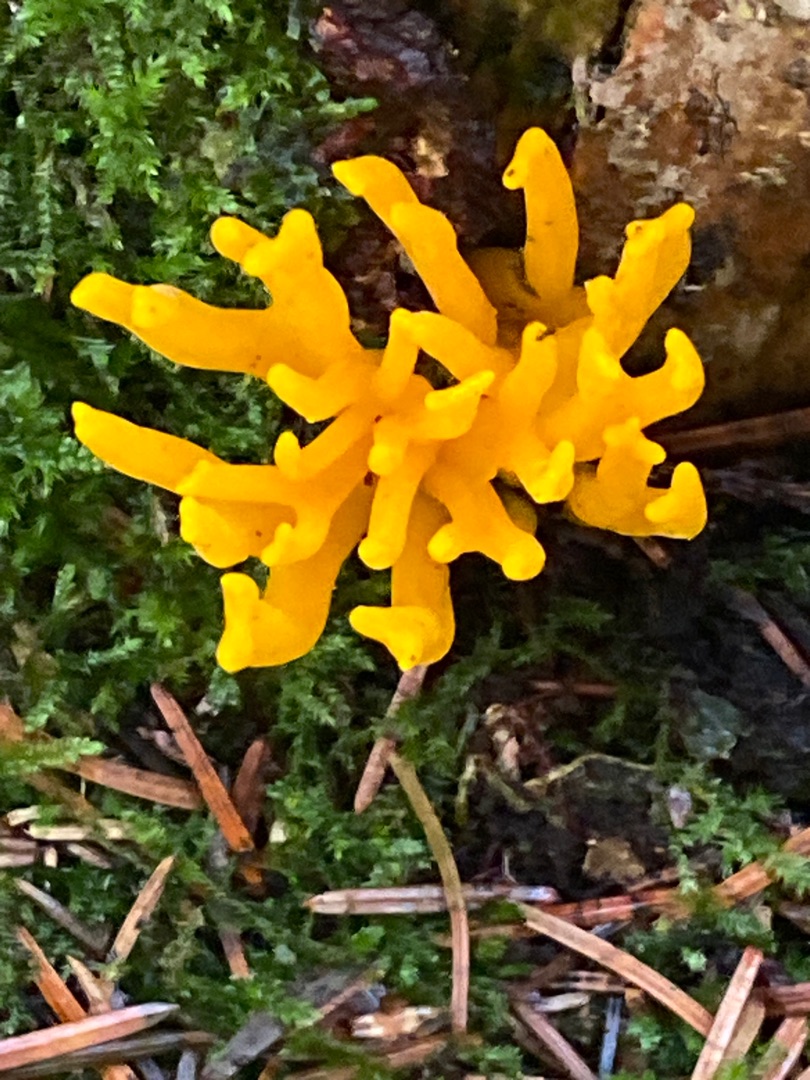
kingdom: Fungi
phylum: Basidiomycota
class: Dacrymycetes
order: Dacrymycetales
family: Dacrymycetaceae
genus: Calocera
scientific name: Calocera viscosa
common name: Almindelig guldgaffel
